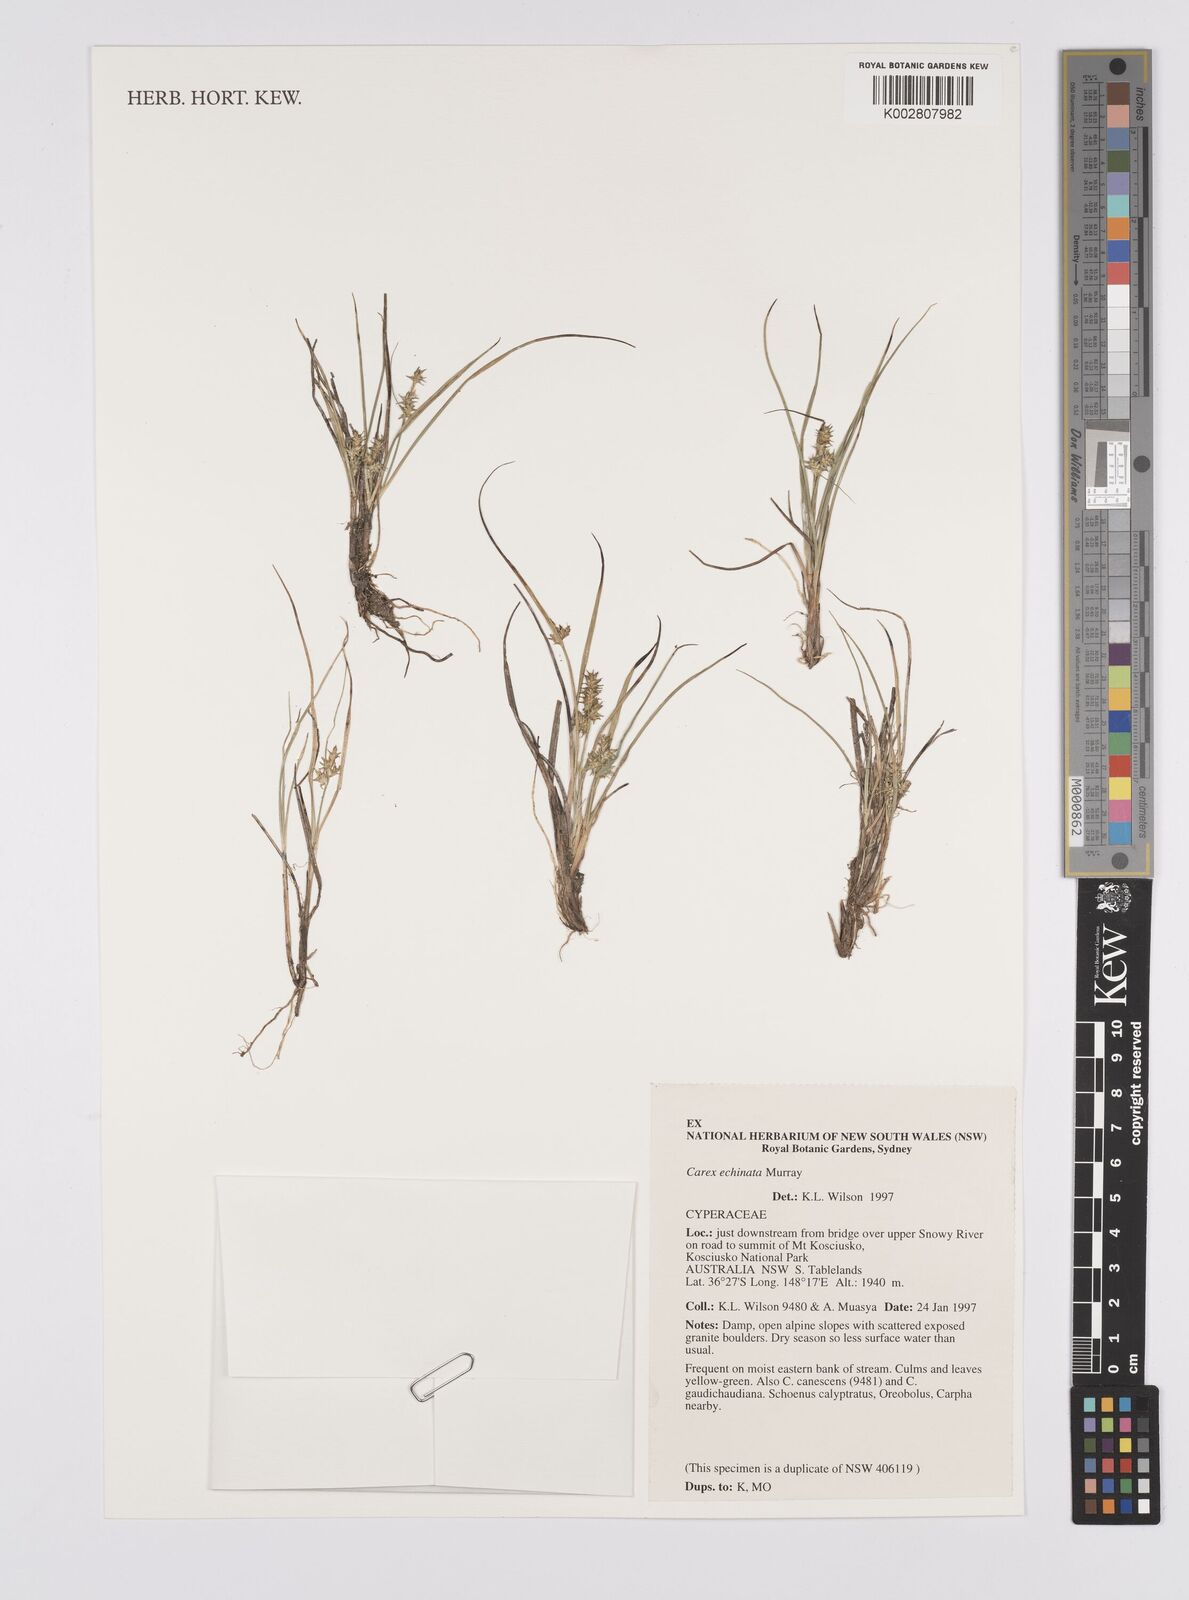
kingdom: Plantae
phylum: Tracheophyta
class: Liliopsida
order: Poales
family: Cyperaceae
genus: Carex
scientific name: Carex echinata
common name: Star sedge
